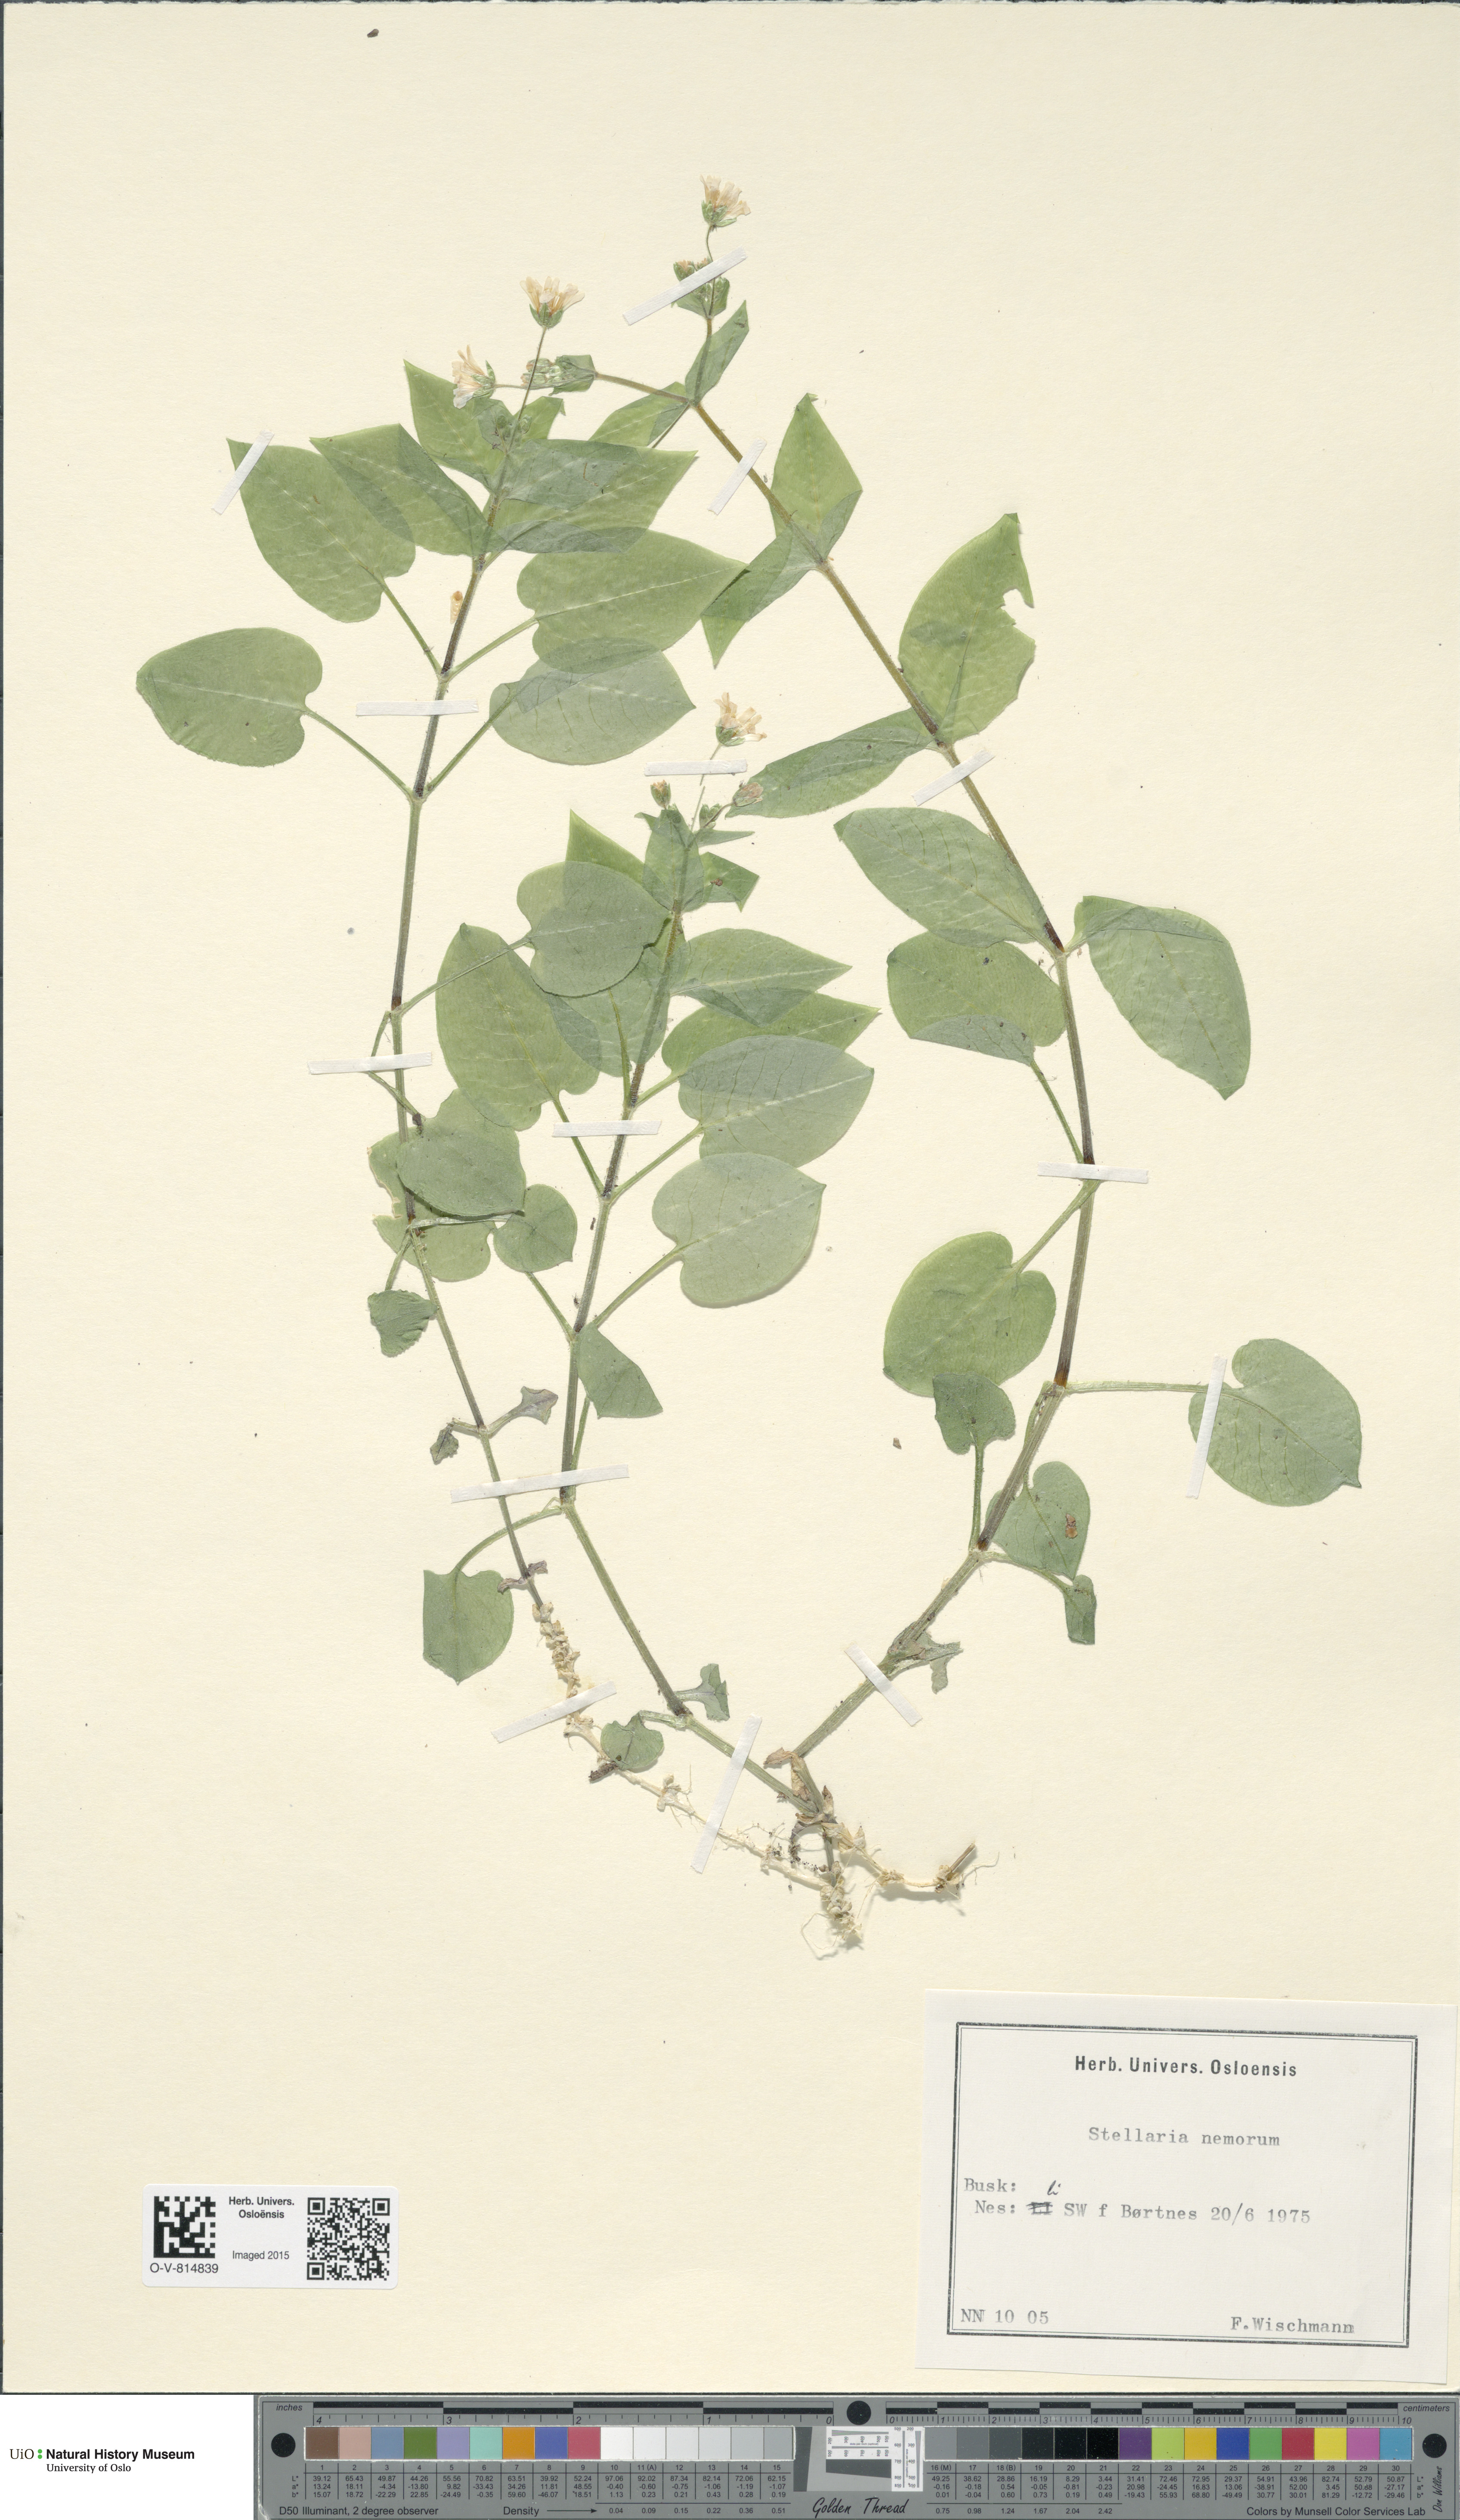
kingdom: Plantae
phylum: Tracheophyta
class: Magnoliopsida
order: Caryophyllales
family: Caryophyllaceae
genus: Stellaria
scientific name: Stellaria nemorum
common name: Wood stitchwort
